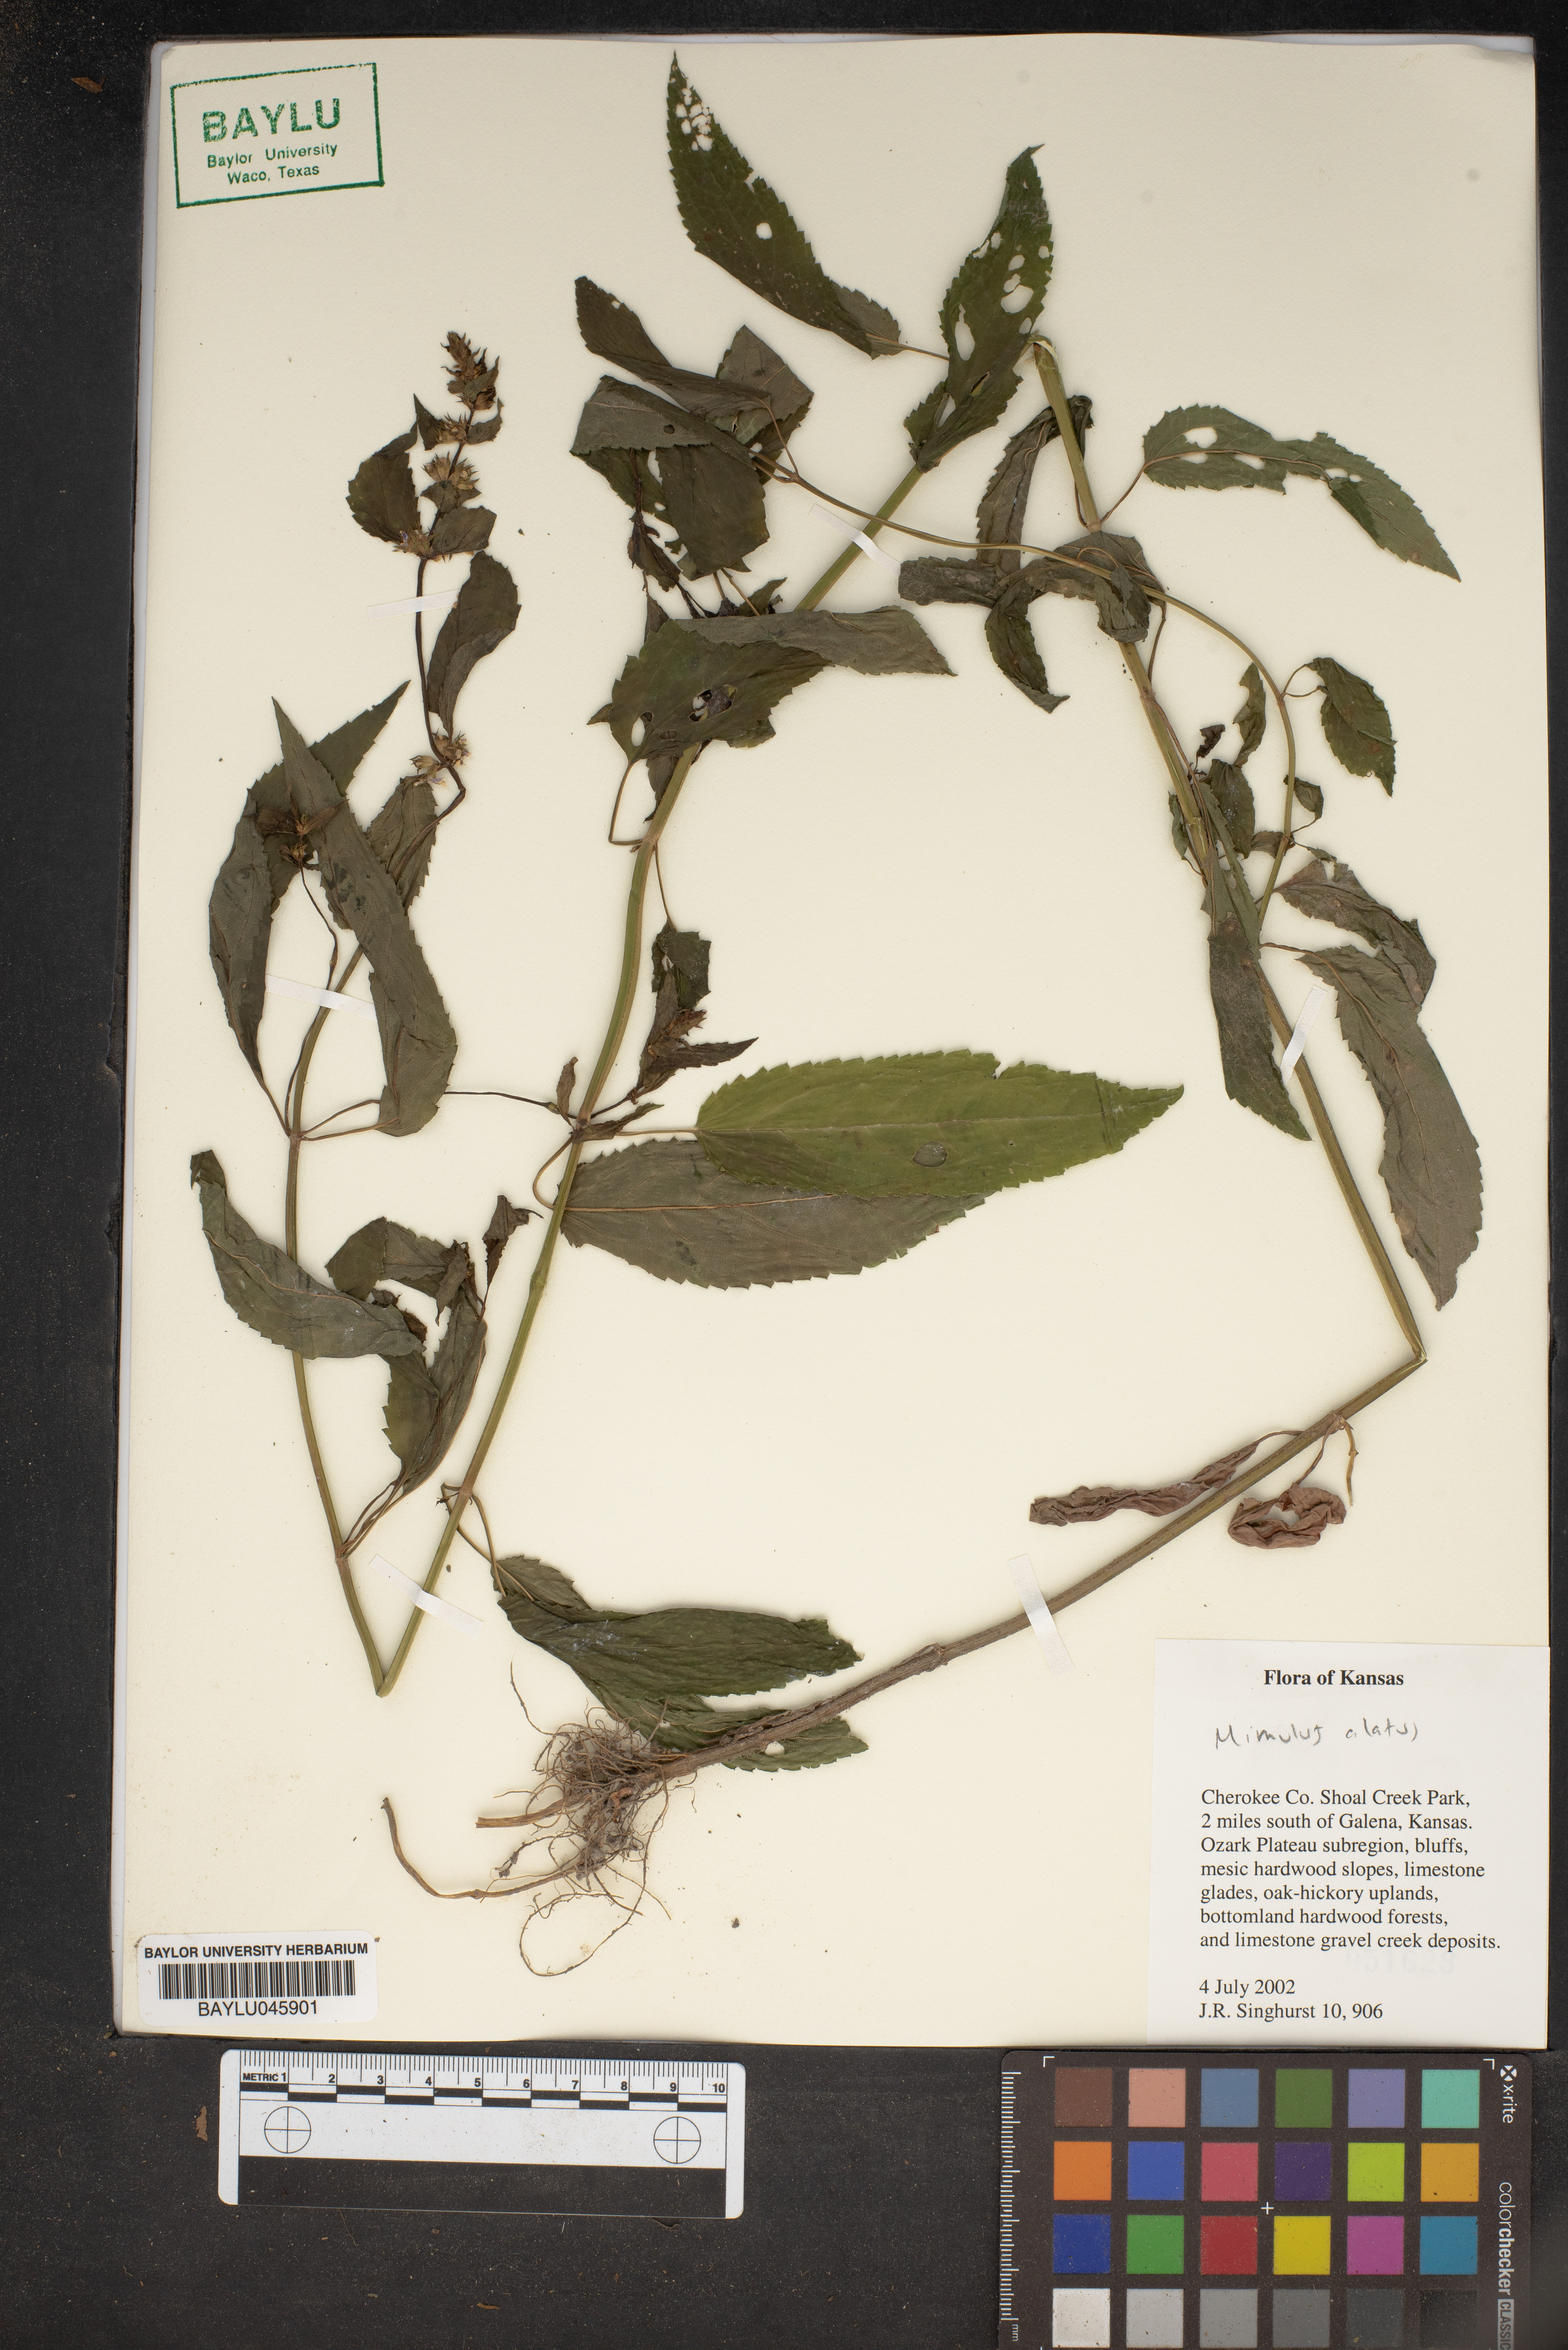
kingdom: Plantae
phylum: Tracheophyta
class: Magnoliopsida
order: Lamiales
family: Phrymaceae
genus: Mimulus
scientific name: Mimulus alatus
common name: Sharp-wing monkey-flower
